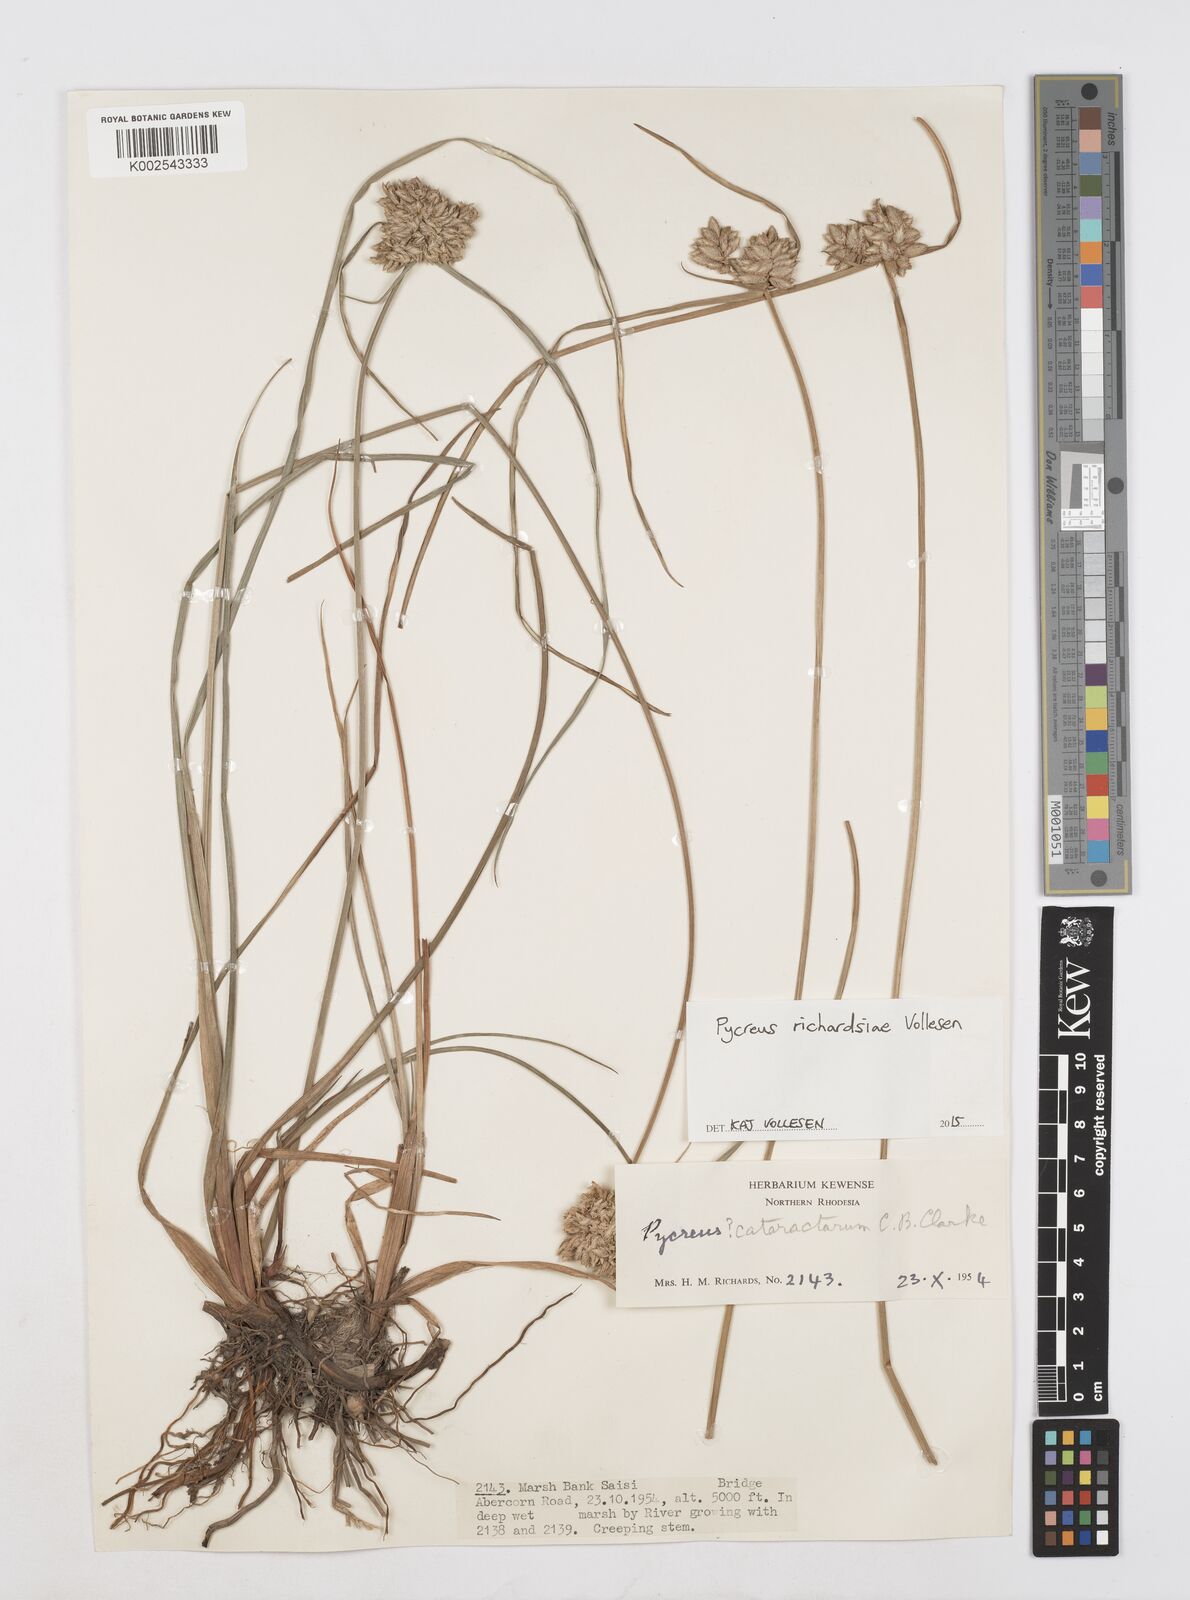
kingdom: Plantae
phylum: Tracheophyta
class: Liliopsida
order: Poales
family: Cyperaceae
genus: Cyperus
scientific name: Cyperus
